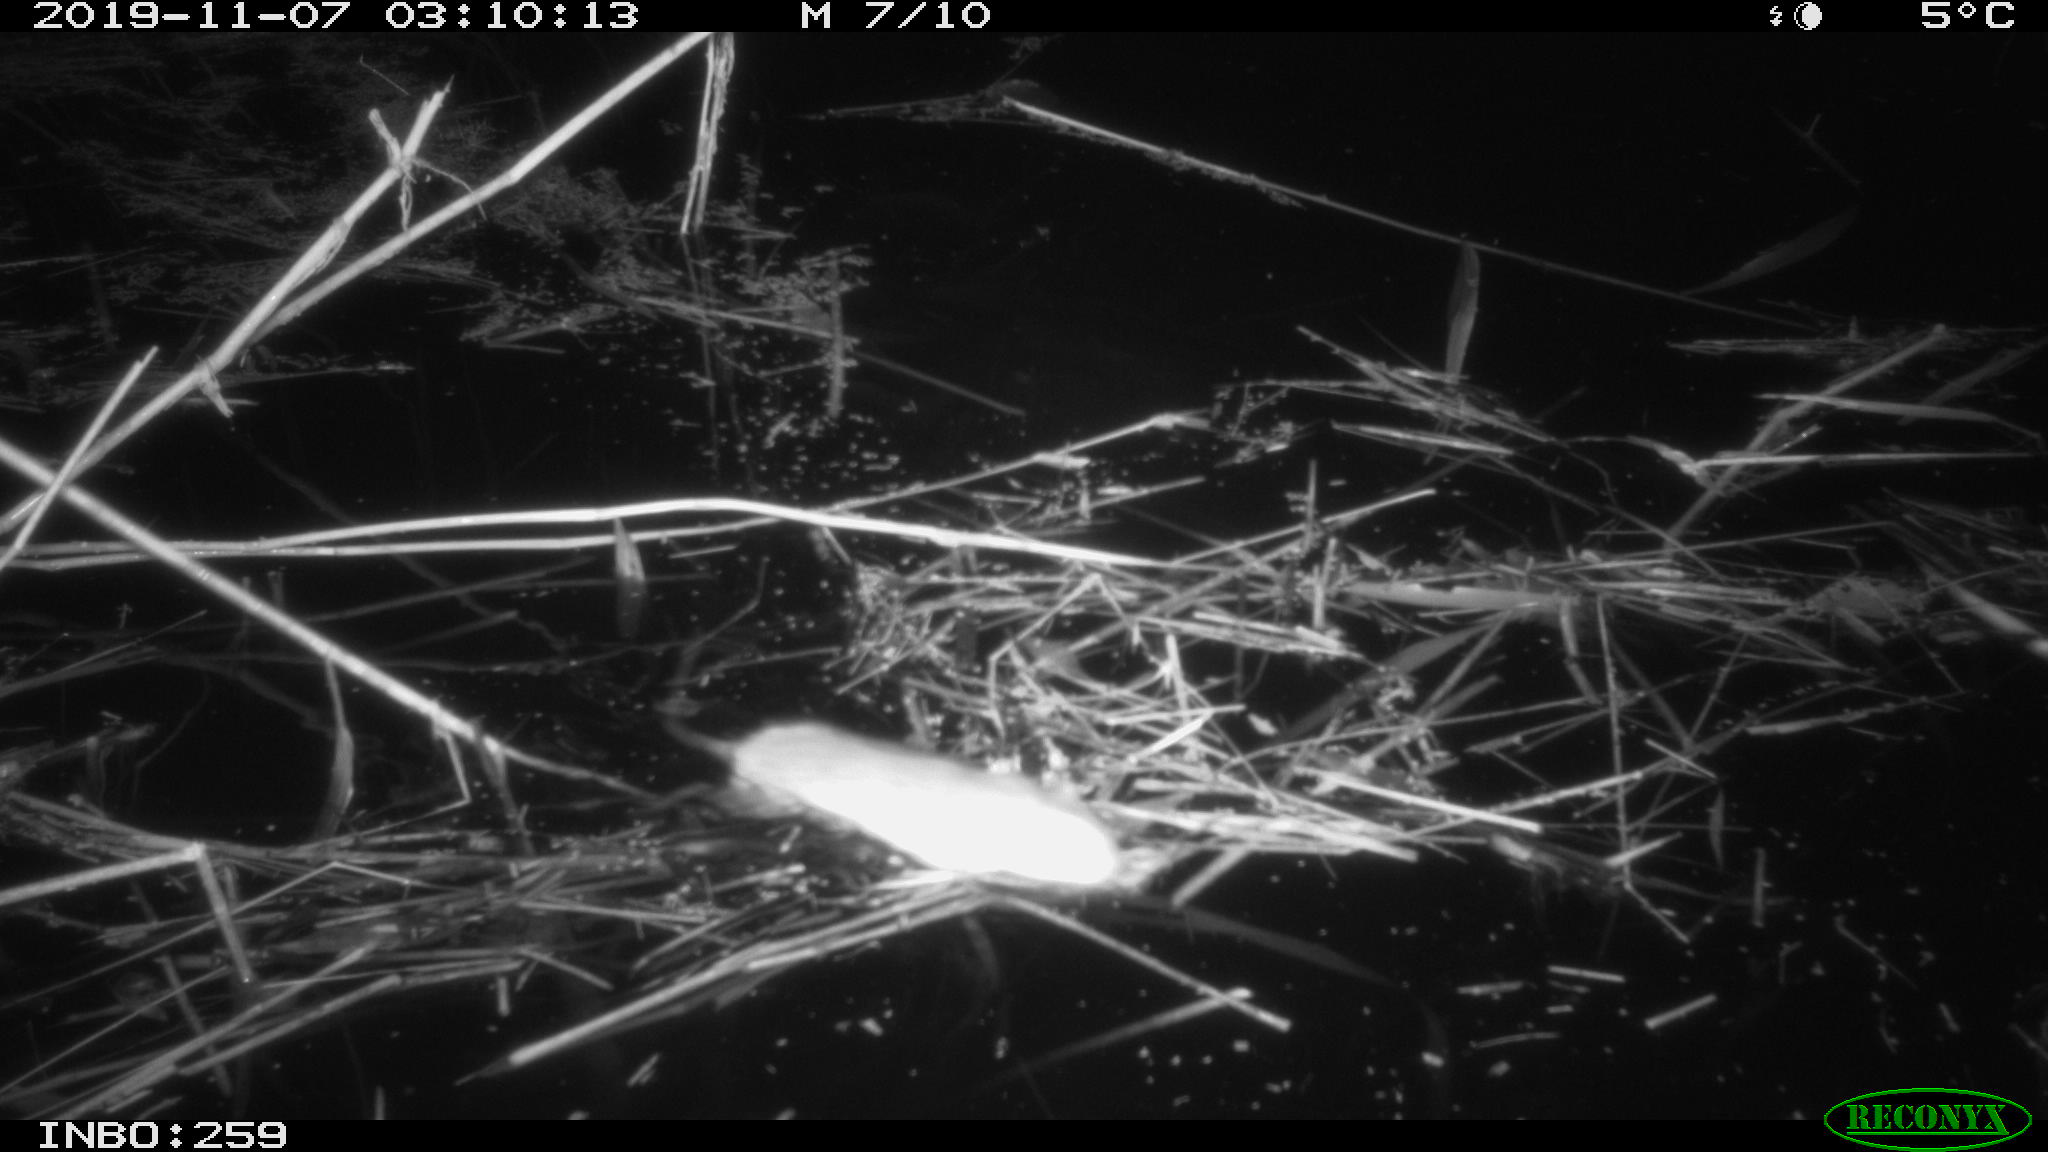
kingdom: Animalia
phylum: Chordata
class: Mammalia
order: Rodentia
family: Muridae
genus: Rattus
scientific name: Rattus norvegicus
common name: Brown rat
